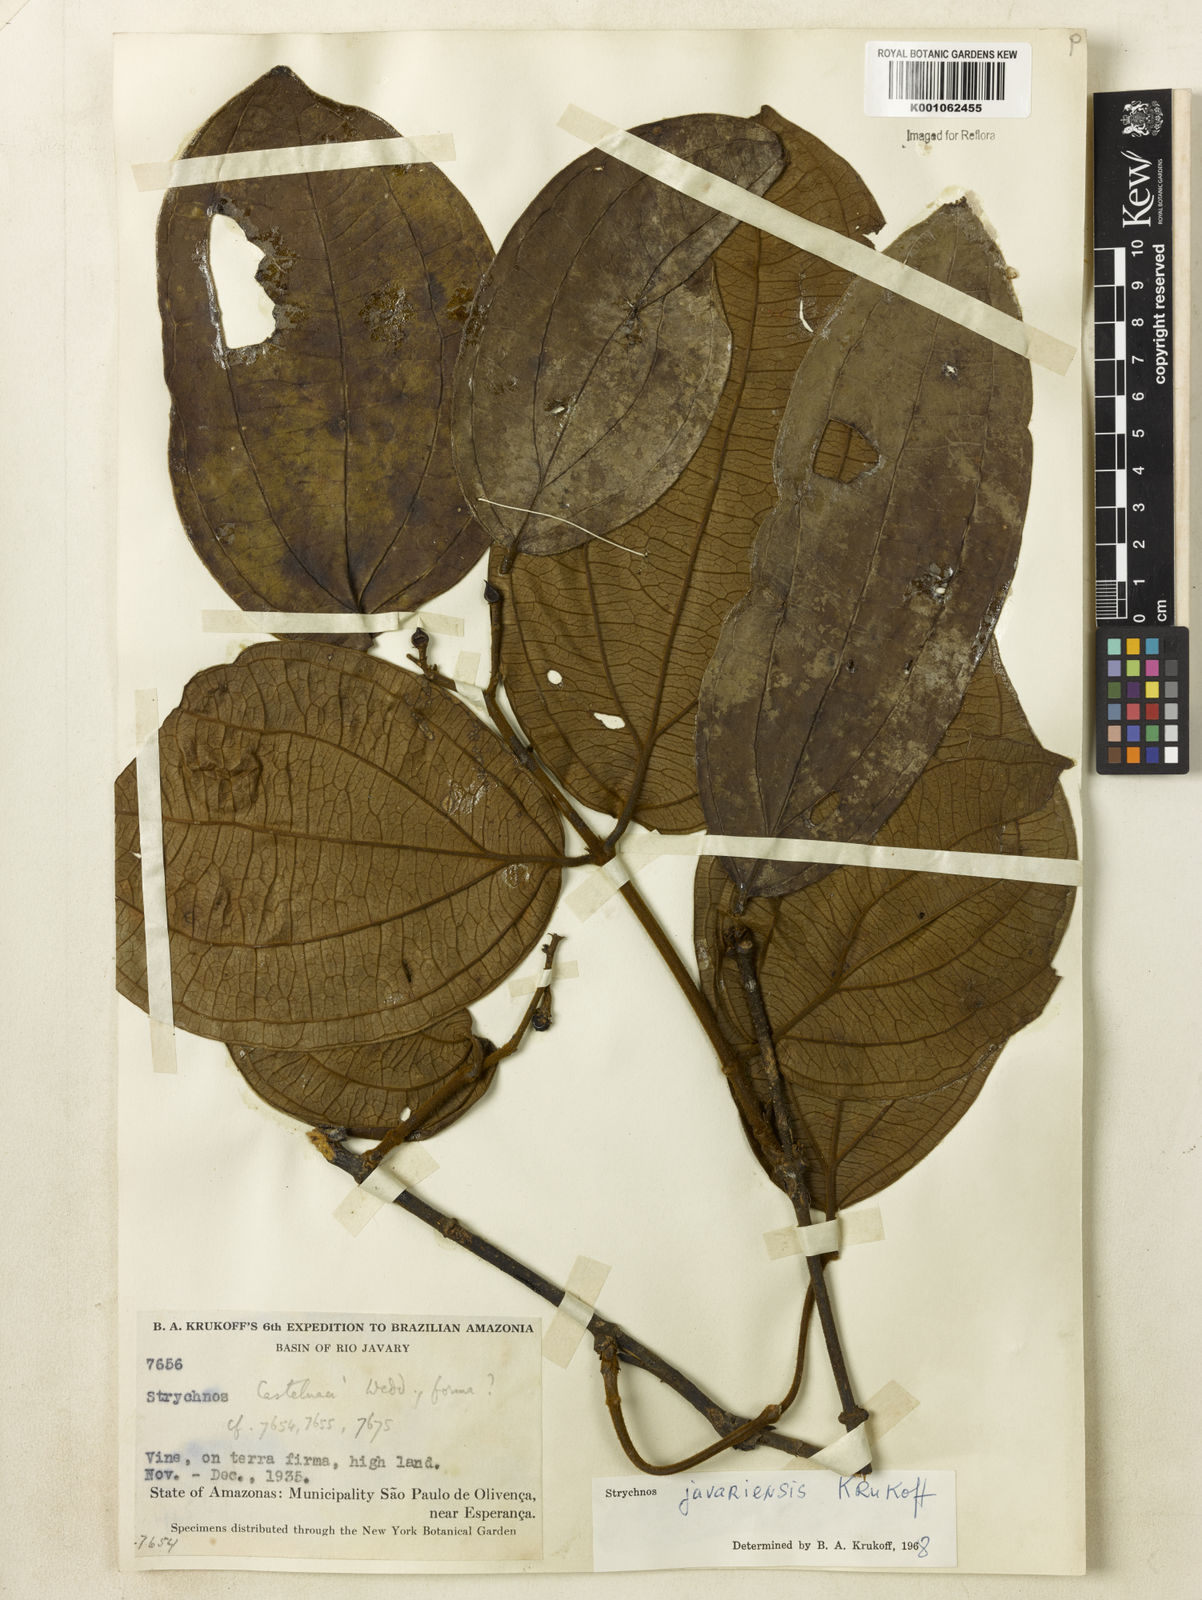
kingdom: Plantae
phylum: Tracheophyta
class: Magnoliopsida
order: Gentianales
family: Loganiaceae
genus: Strychnos
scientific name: Strychnos javariensis
